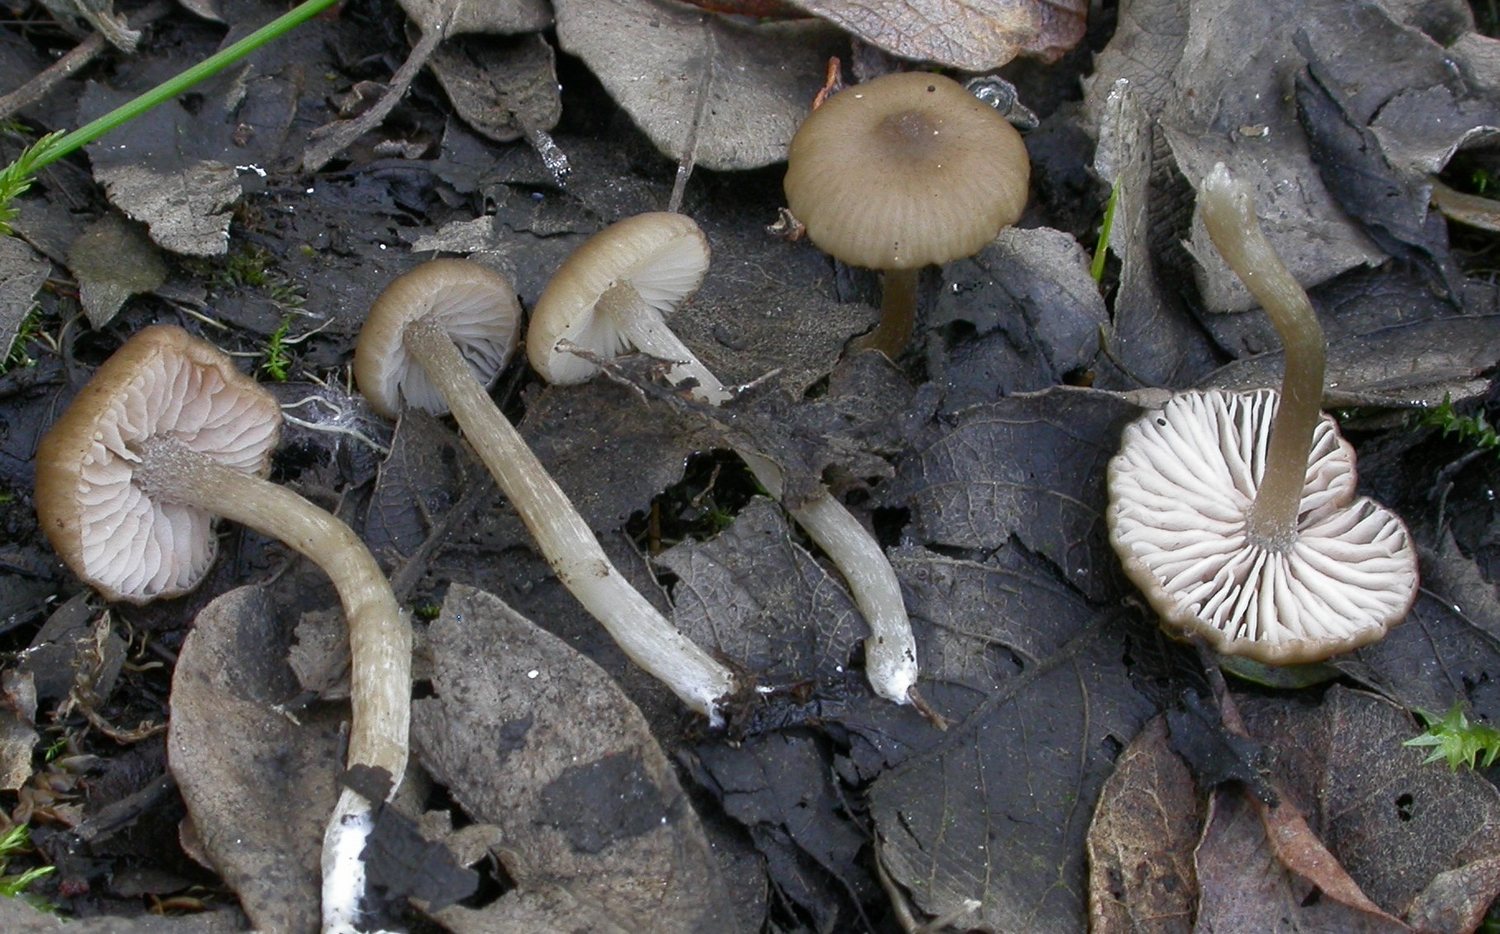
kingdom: Fungi
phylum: Basidiomycota
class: Agaricomycetes
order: Agaricales
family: Entolomataceae
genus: Entoloma
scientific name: Entoloma caccabus
